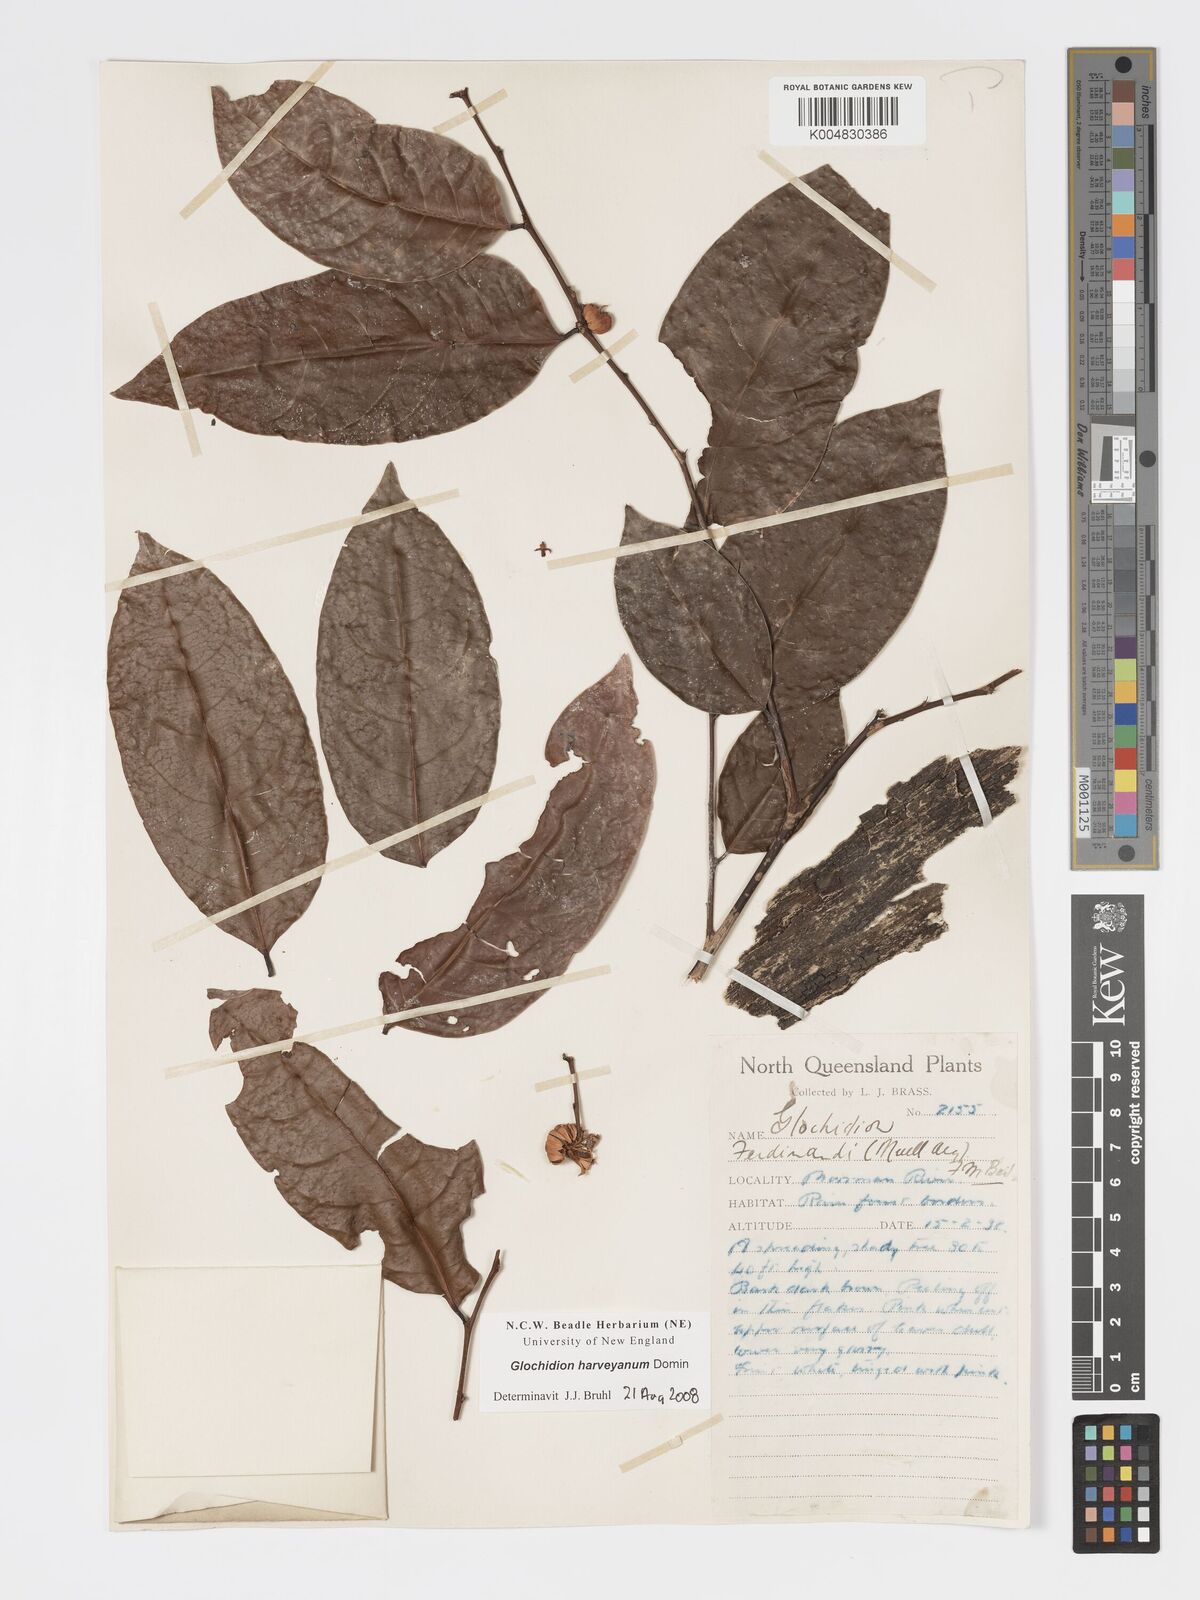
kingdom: Plantae
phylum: Tracheophyta
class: Magnoliopsida
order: Malpighiales
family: Phyllanthaceae
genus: Glochidion
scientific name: Glochidion harveyanum
